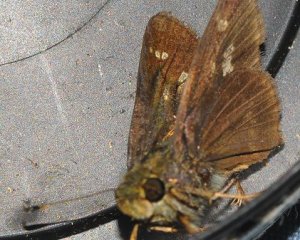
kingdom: Animalia
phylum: Arthropoda
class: Insecta
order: Lepidoptera
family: Hesperiidae
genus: Vernia
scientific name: Vernia verna
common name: Little Glassywing
